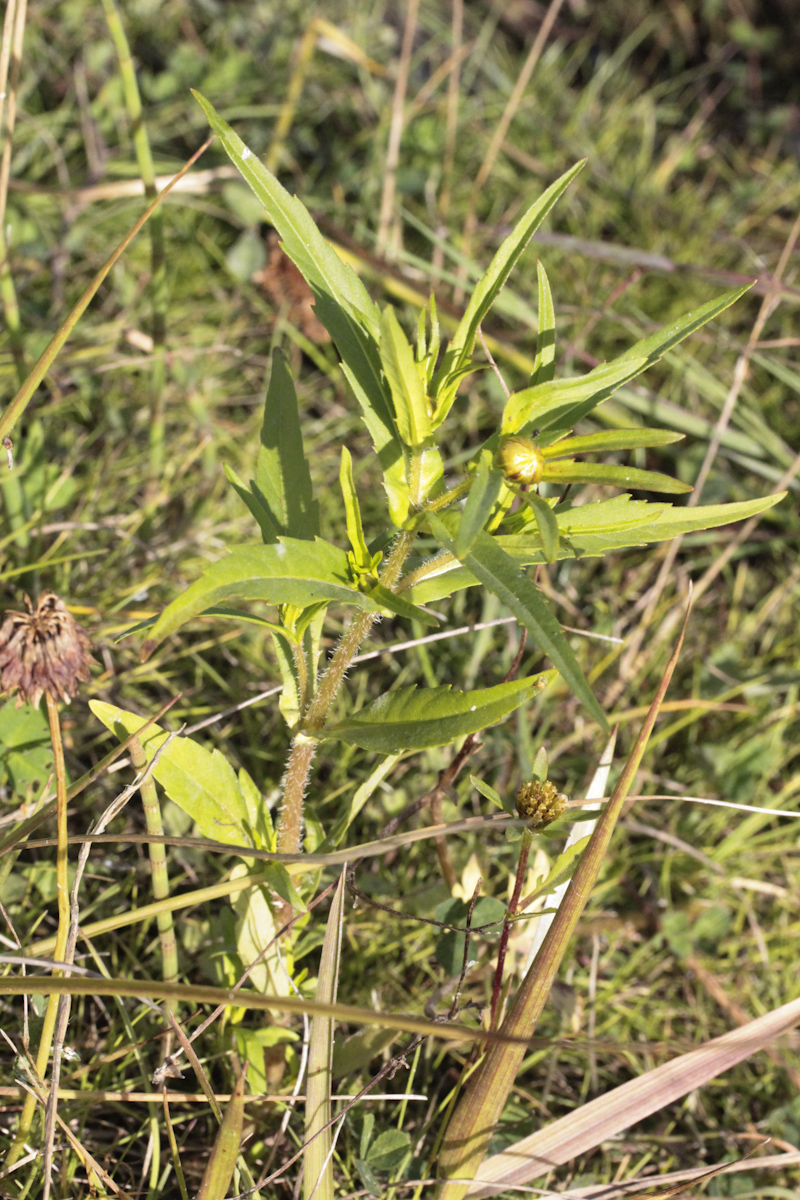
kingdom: Plantae
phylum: Tracheophyta
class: Magnoliopsida
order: Asterales
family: Asteraceae
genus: Bidens
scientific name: Bidens
